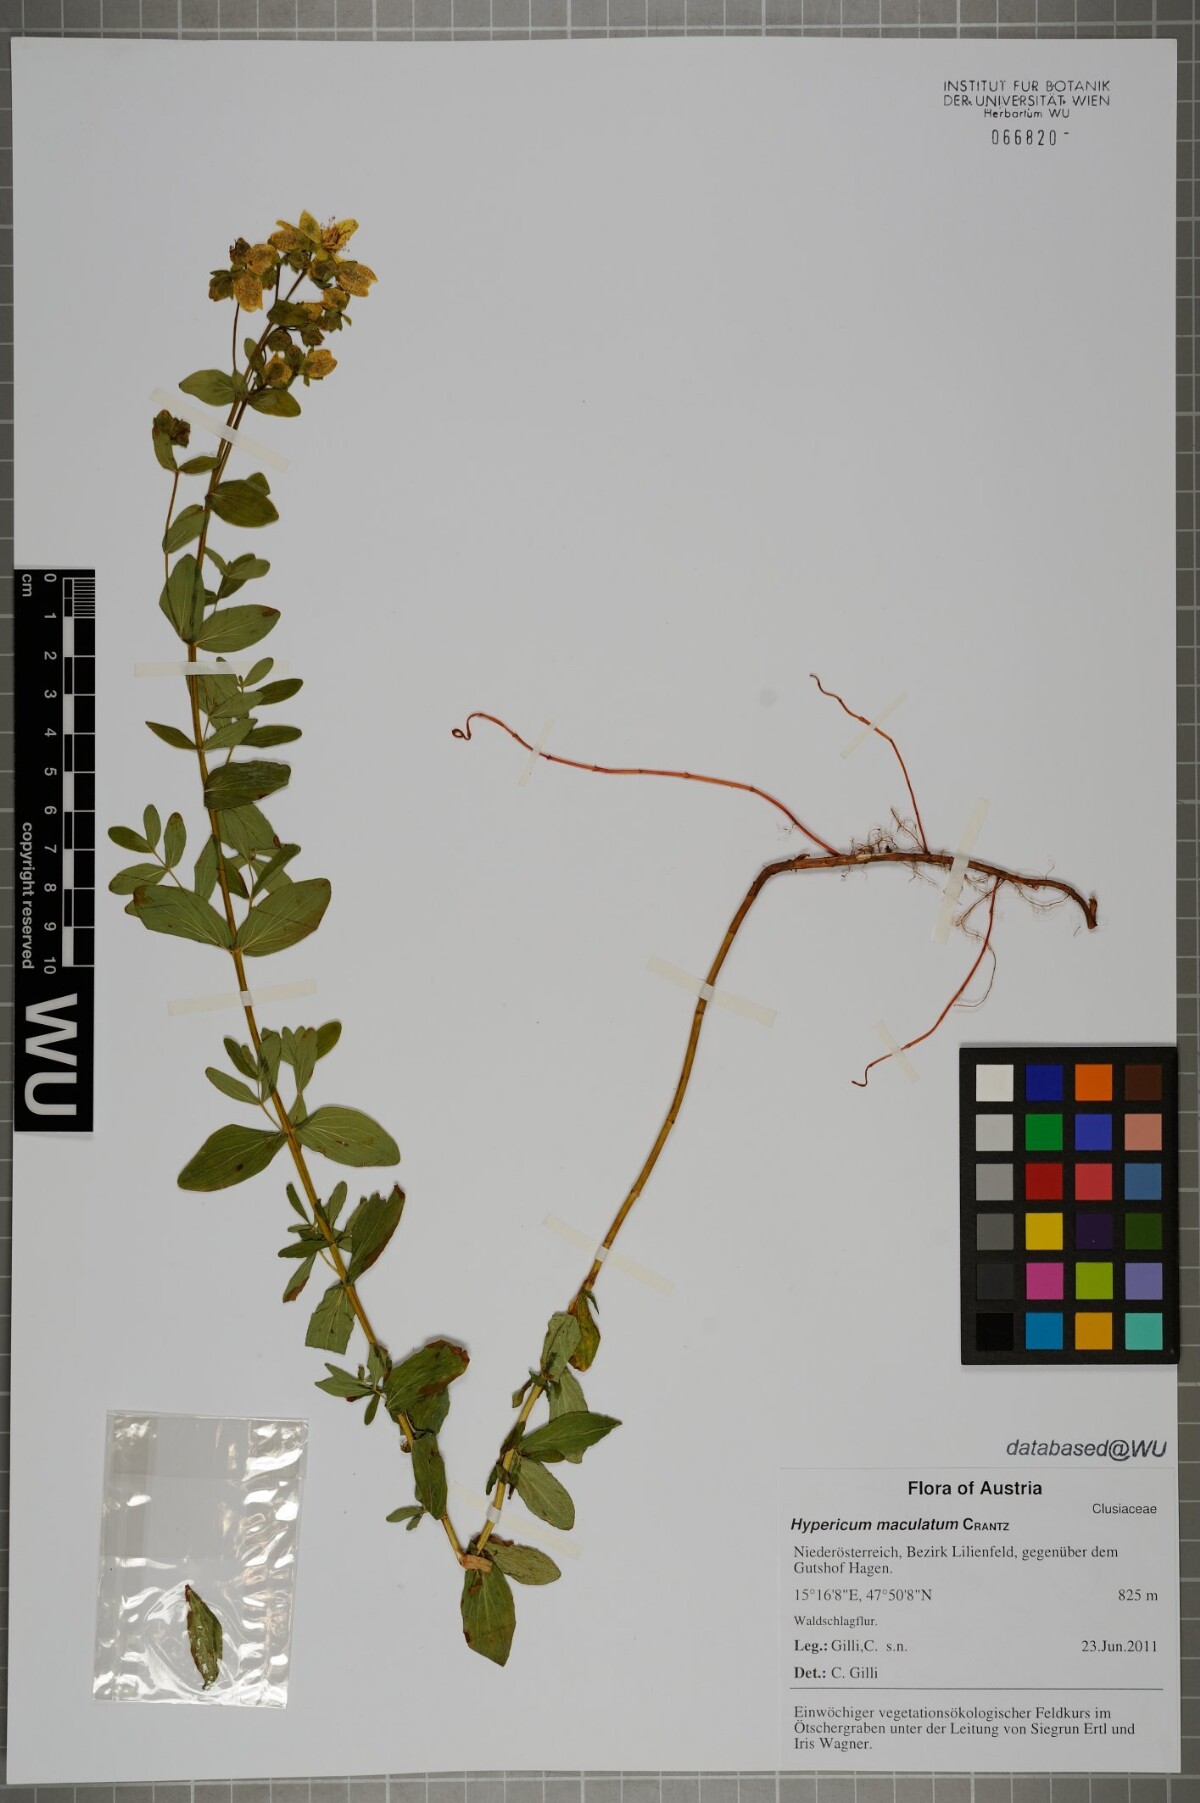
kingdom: Plantae
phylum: Tracheophyta
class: Magnoliopsida
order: Malpighiales
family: Hypericaceae
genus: Hypericum
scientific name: Hypericum maculatum
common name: Imperforate st. john's-wort
